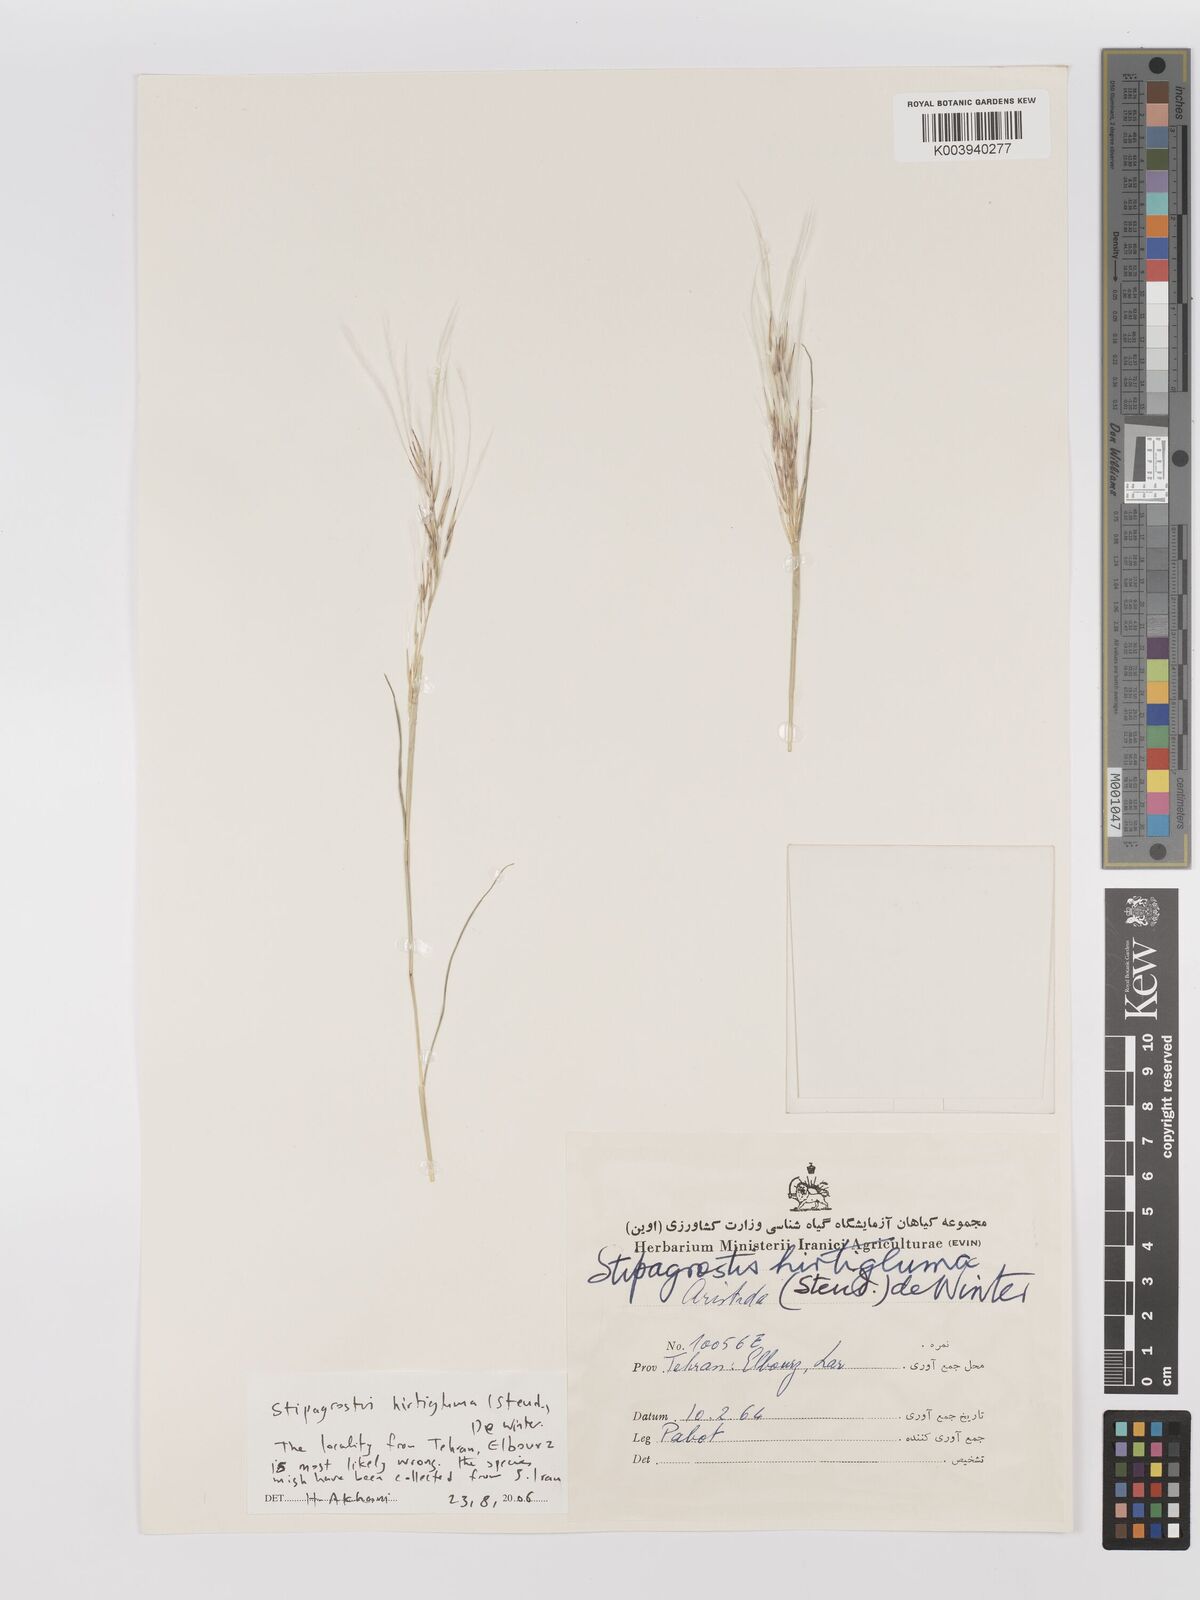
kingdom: Plantae
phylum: Tracheophyta
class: Liliopsida
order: Poales
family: Poaceae
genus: Stipagrostis
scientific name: Stipagrostis hirtigluma
